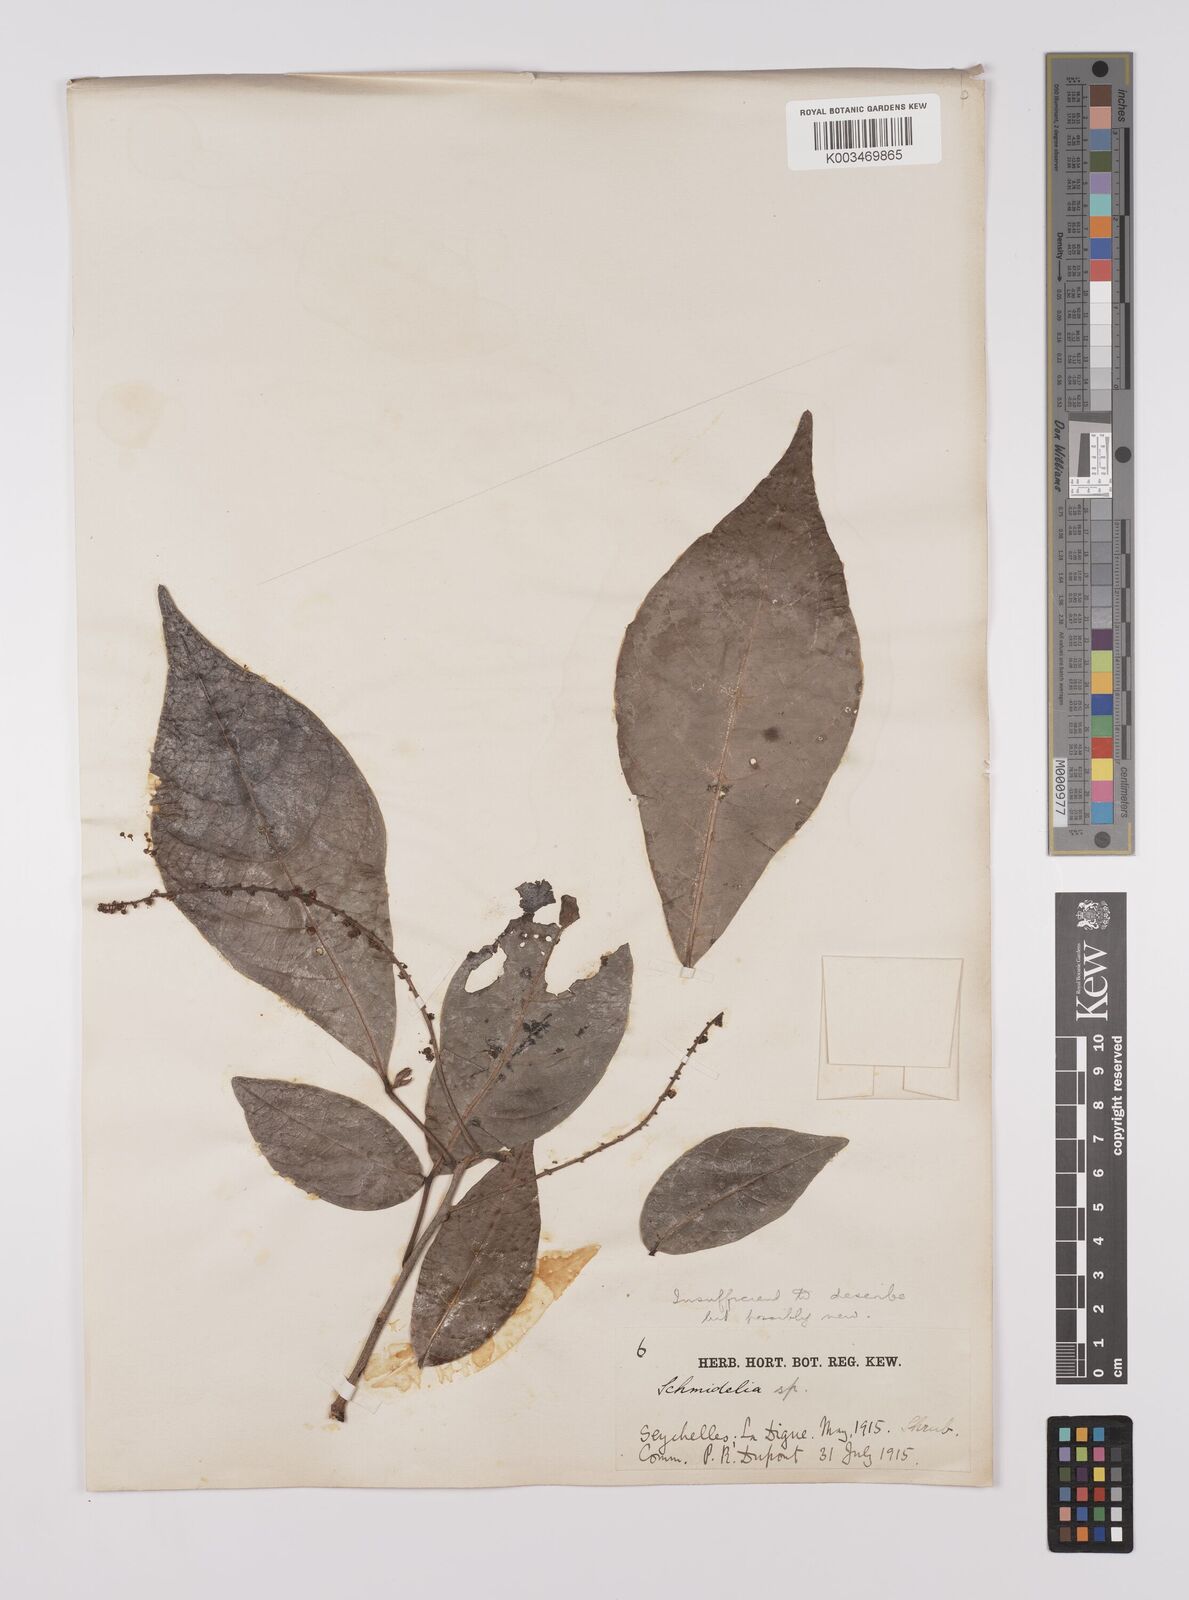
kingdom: Plantae
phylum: Tracheophyta
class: Magnoliopsida
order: Sapindales
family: Sapindaceae
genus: Allophylus
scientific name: Allophylus sechellensis
